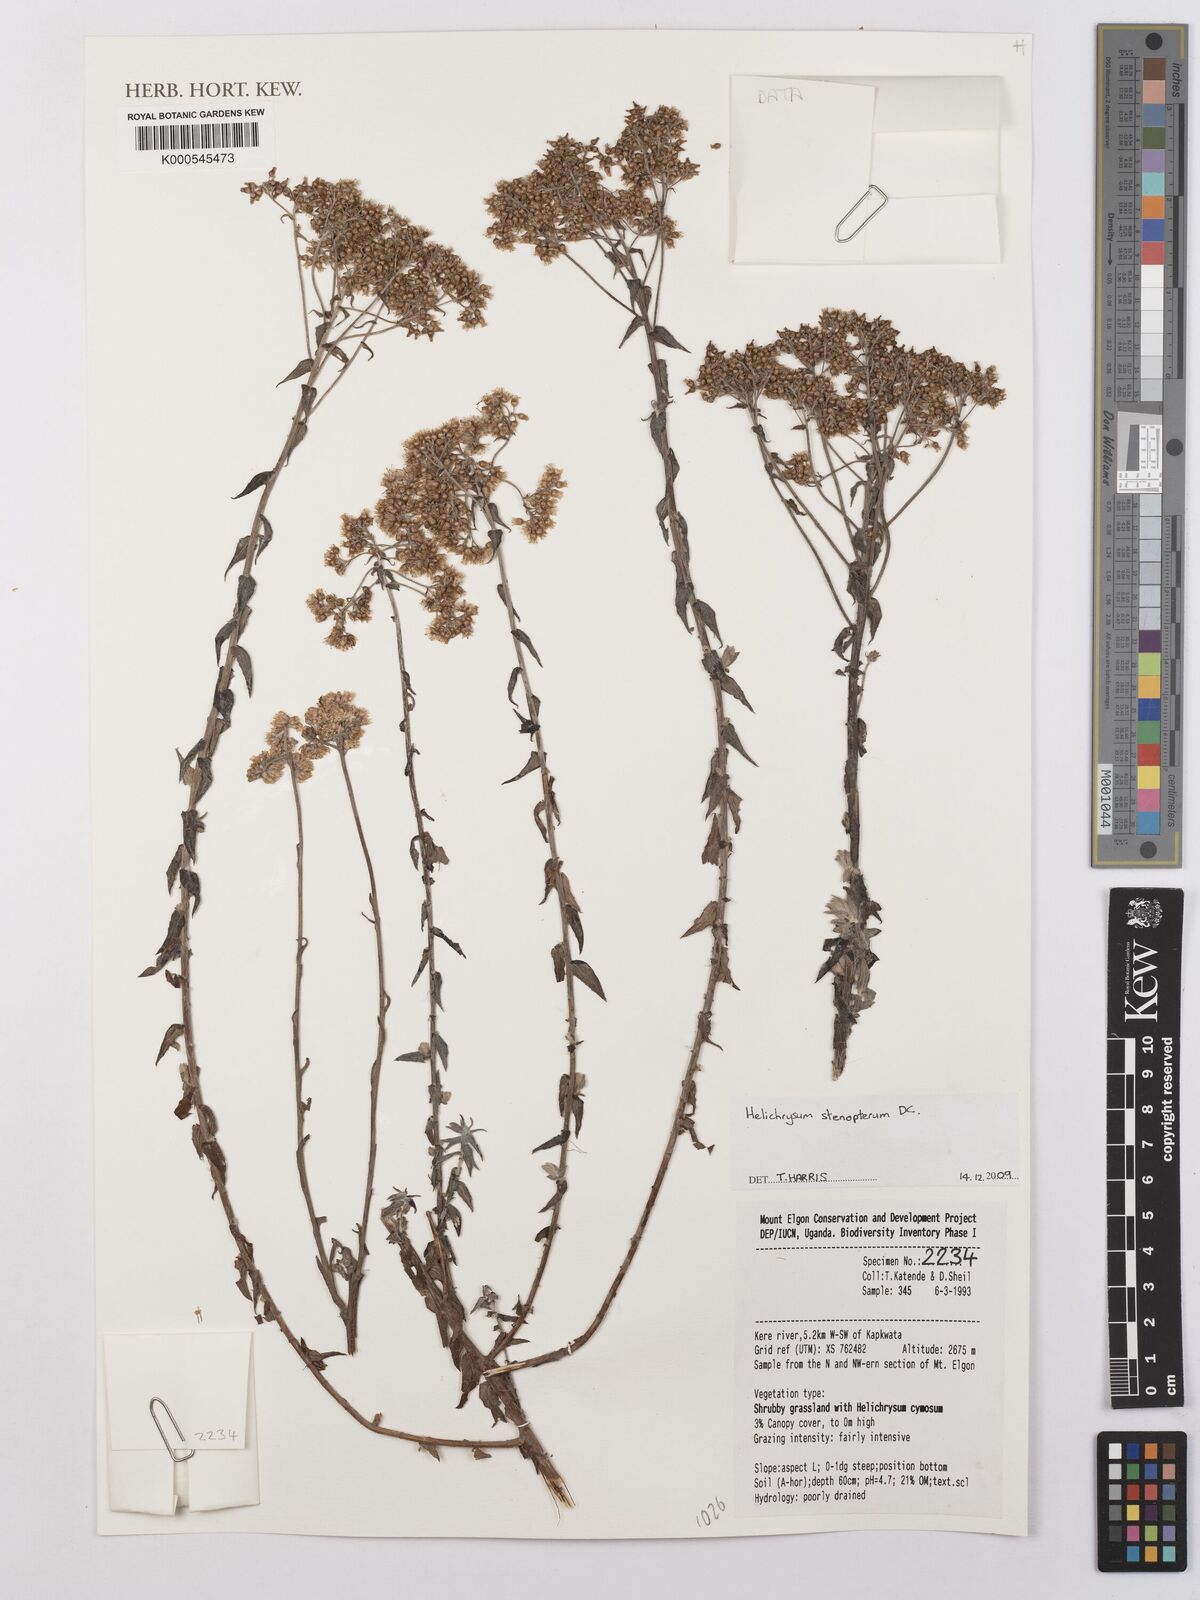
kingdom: Plantae
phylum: Tracheophyta
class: Magnoliopsida
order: Asterales
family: Asteraceae
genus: Helichrysum
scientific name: Helichrysum stenopterum
